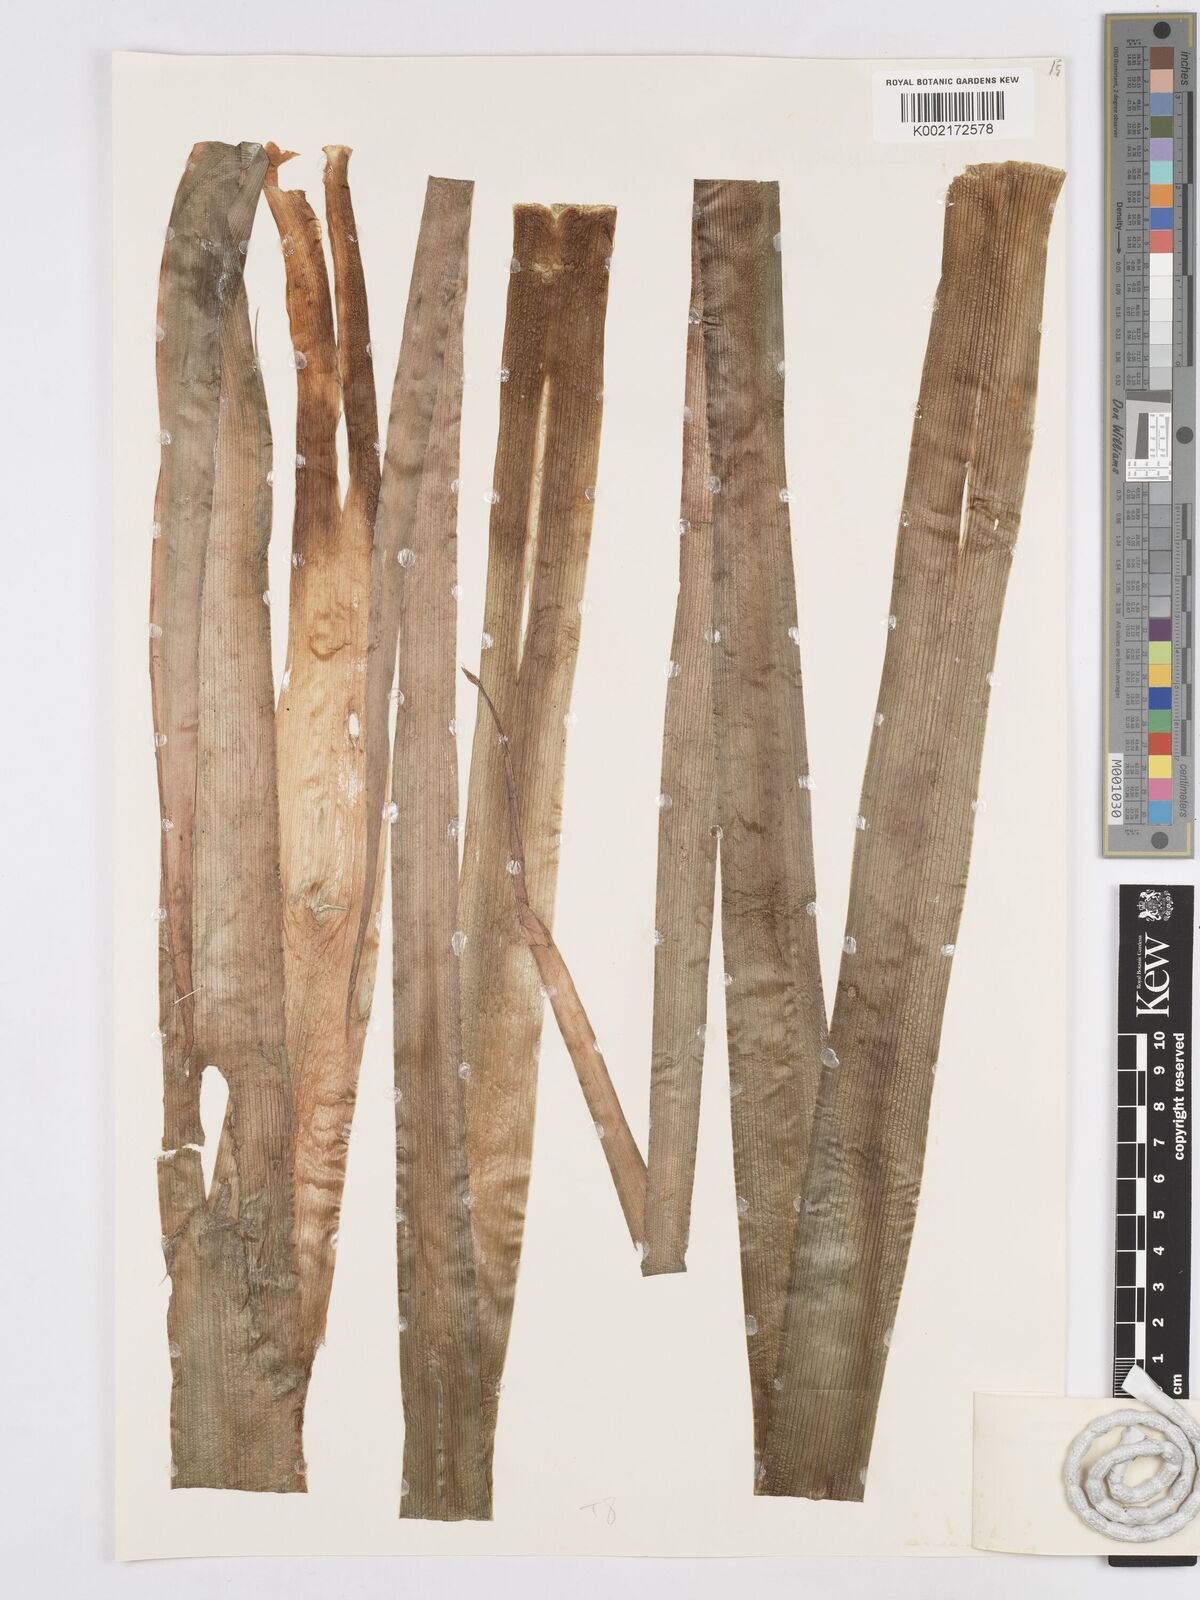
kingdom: Plantae
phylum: Tracheophyta
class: Liliopsida
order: Asparagales
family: Asparagaceae
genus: Albuca
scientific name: Albuca abyssinica
